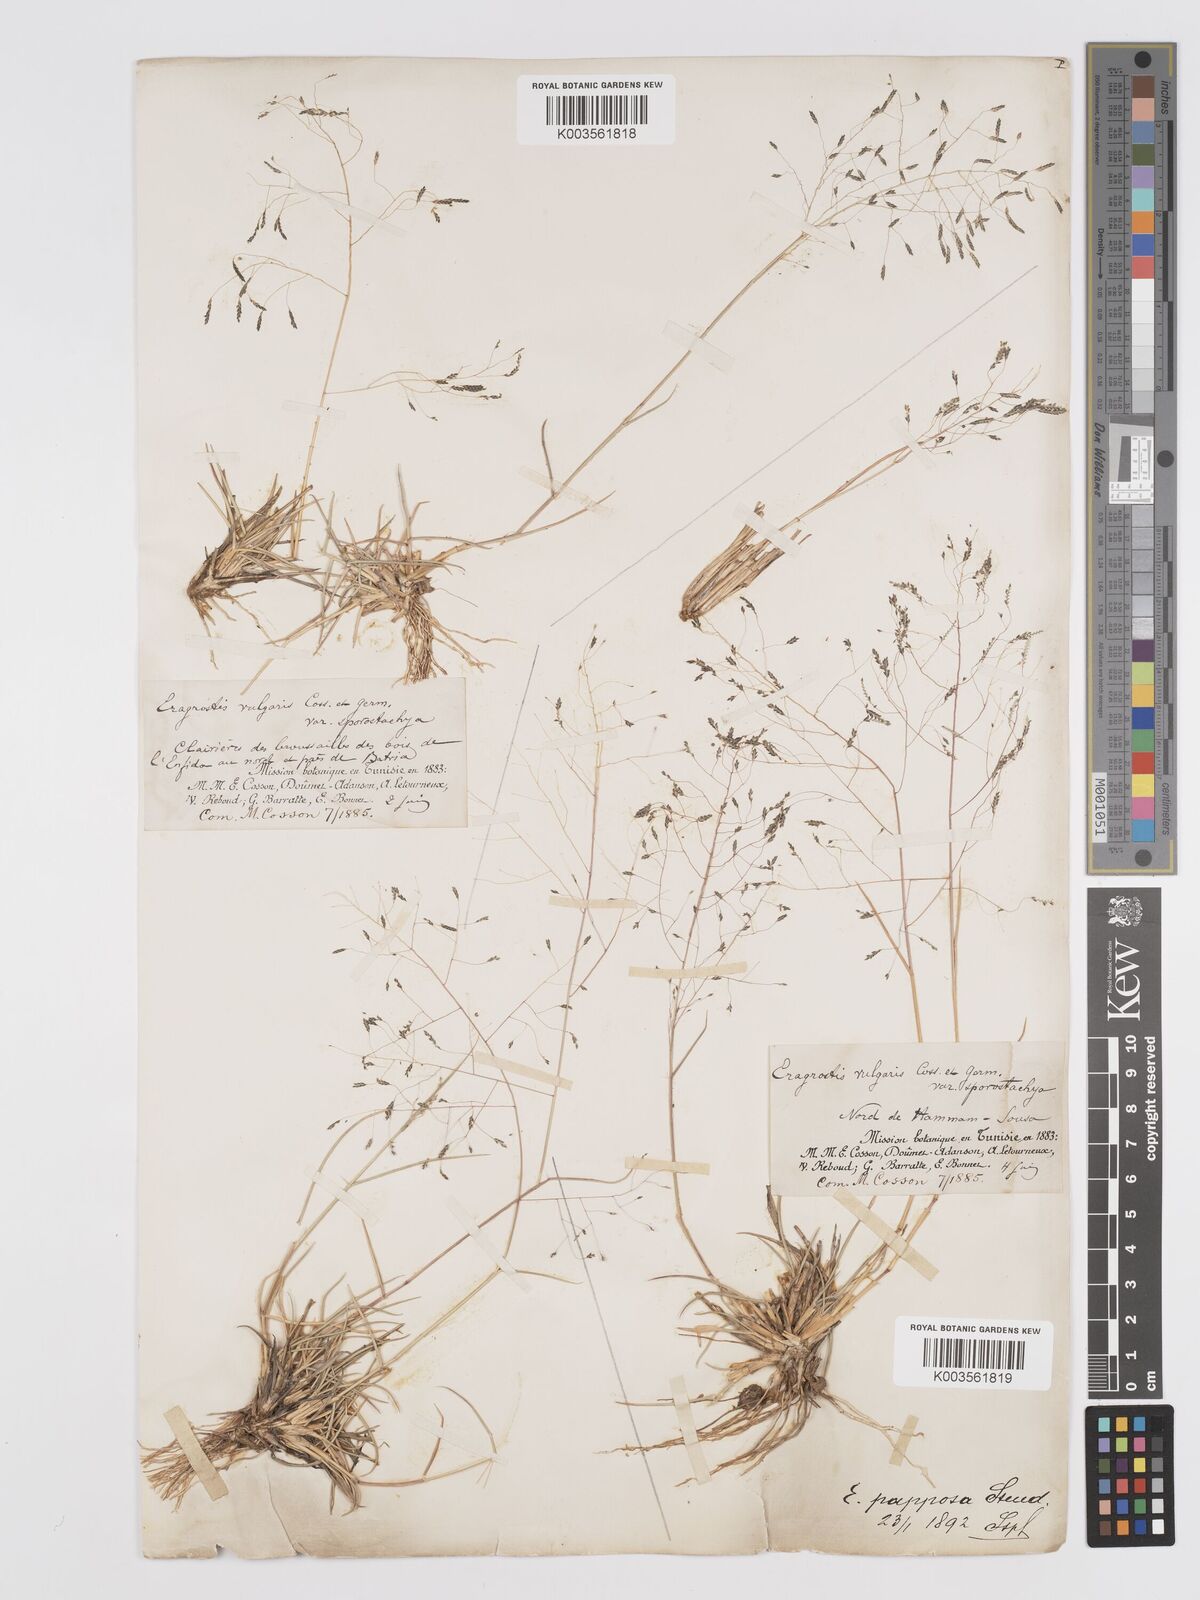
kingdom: Plantae
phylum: Tracheophyta
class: Liliopsida
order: Poales
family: Poaceae
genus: Eragrostis
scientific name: Eragrostis papposa
